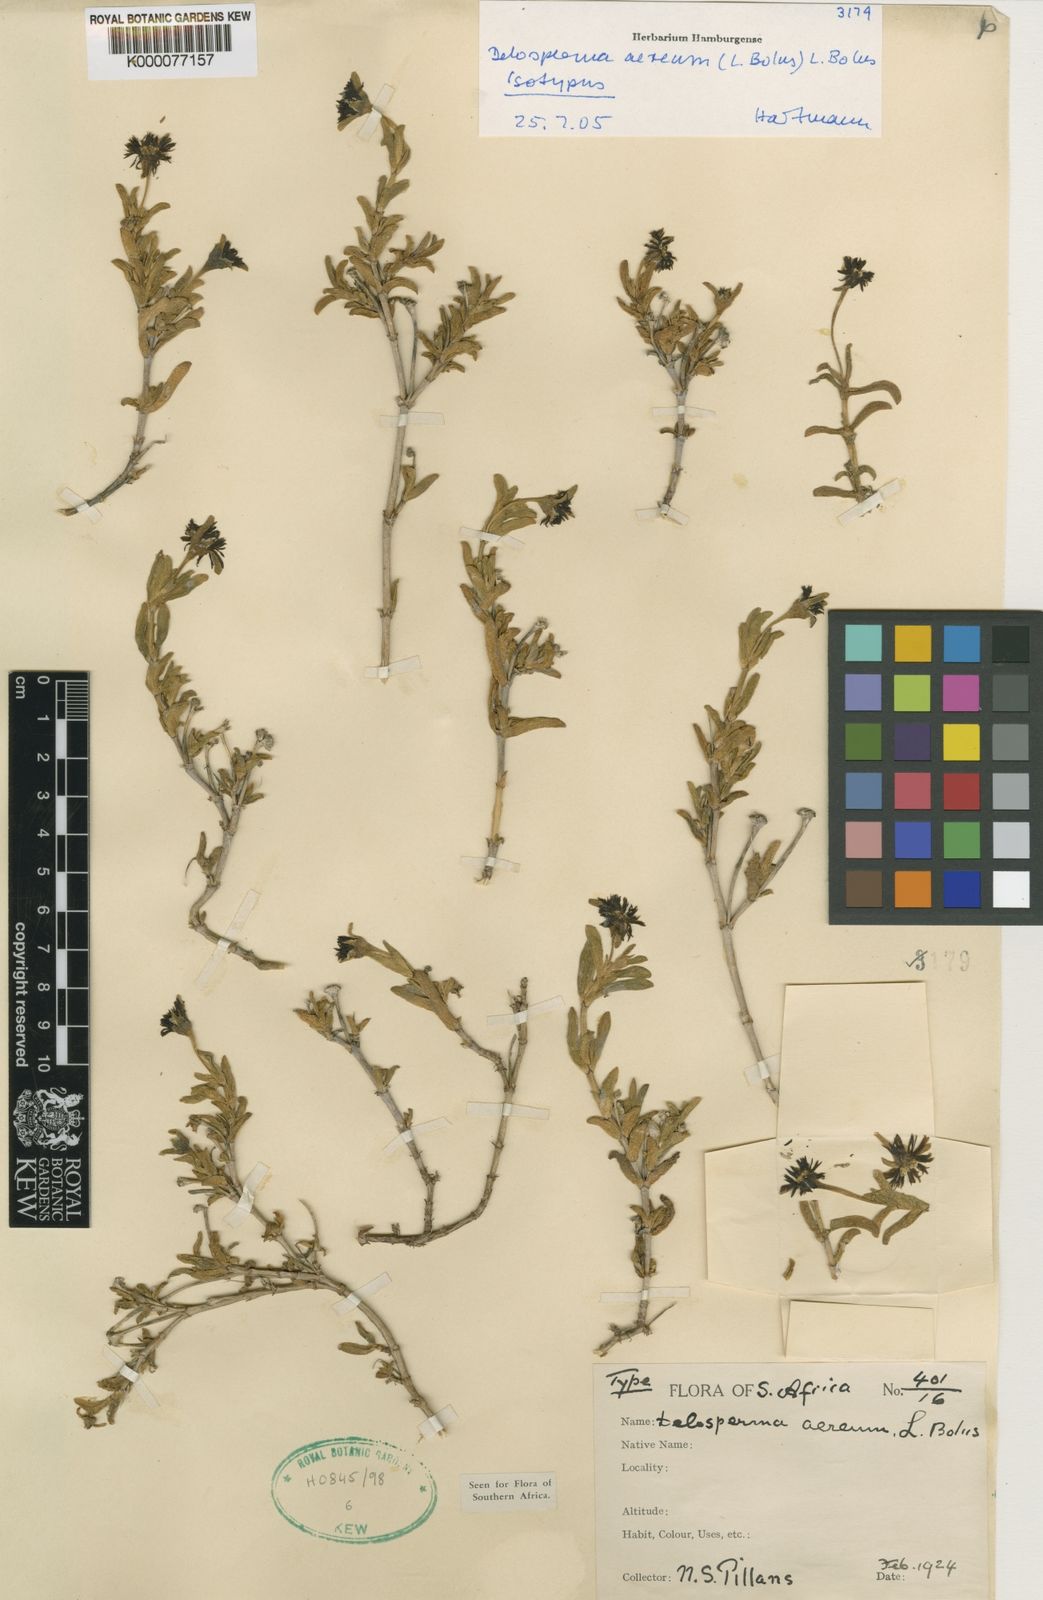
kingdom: Plantae
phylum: Tracheophyta
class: Magnoliopsida
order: Caryophyllales
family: Aizoaceae
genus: Delosperma
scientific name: Delosperma aereum
